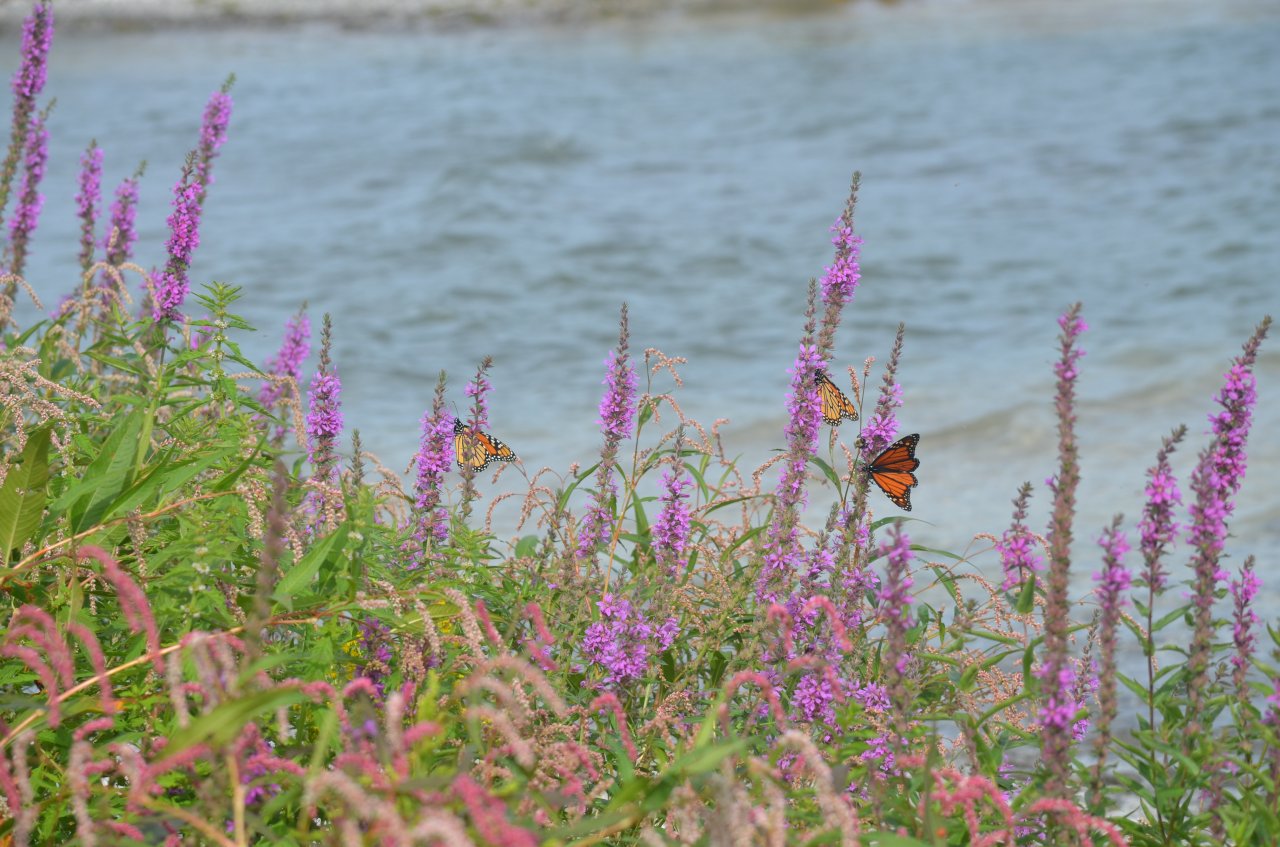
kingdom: Animalia
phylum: Arthropoda
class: Insecta
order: Lepidoptera
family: Nymphalidae
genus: Danaus
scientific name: Danaus plexippus
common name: Monarch
